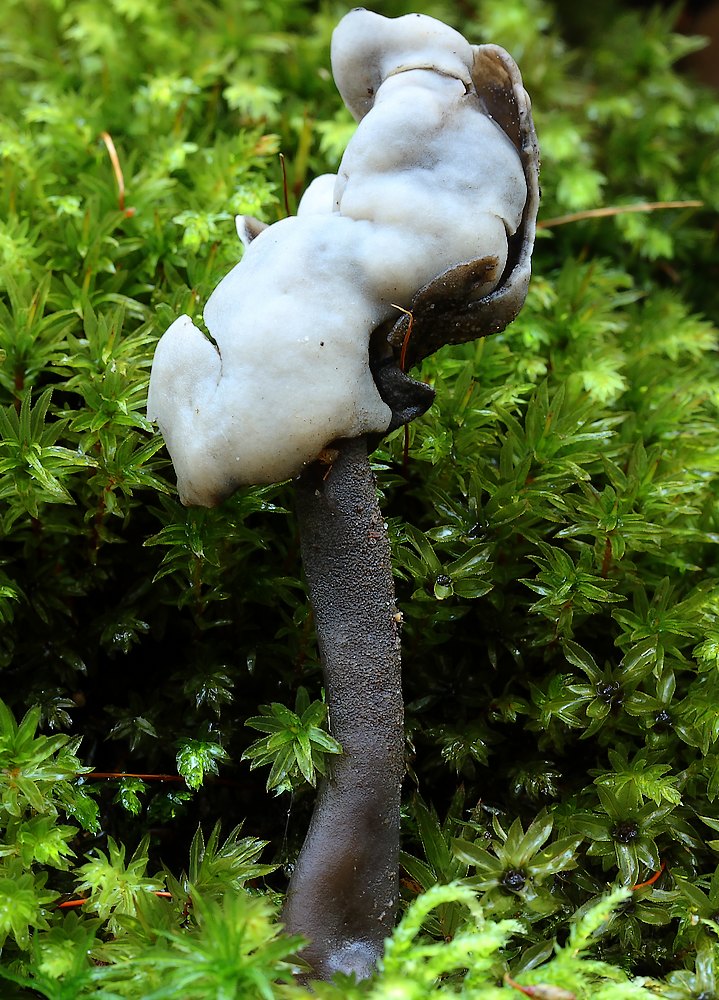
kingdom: Fungi
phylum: Ascomycota
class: Pezizomycetes
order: Pezizales
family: Helvellaceae
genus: Helvella
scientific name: Helvella
